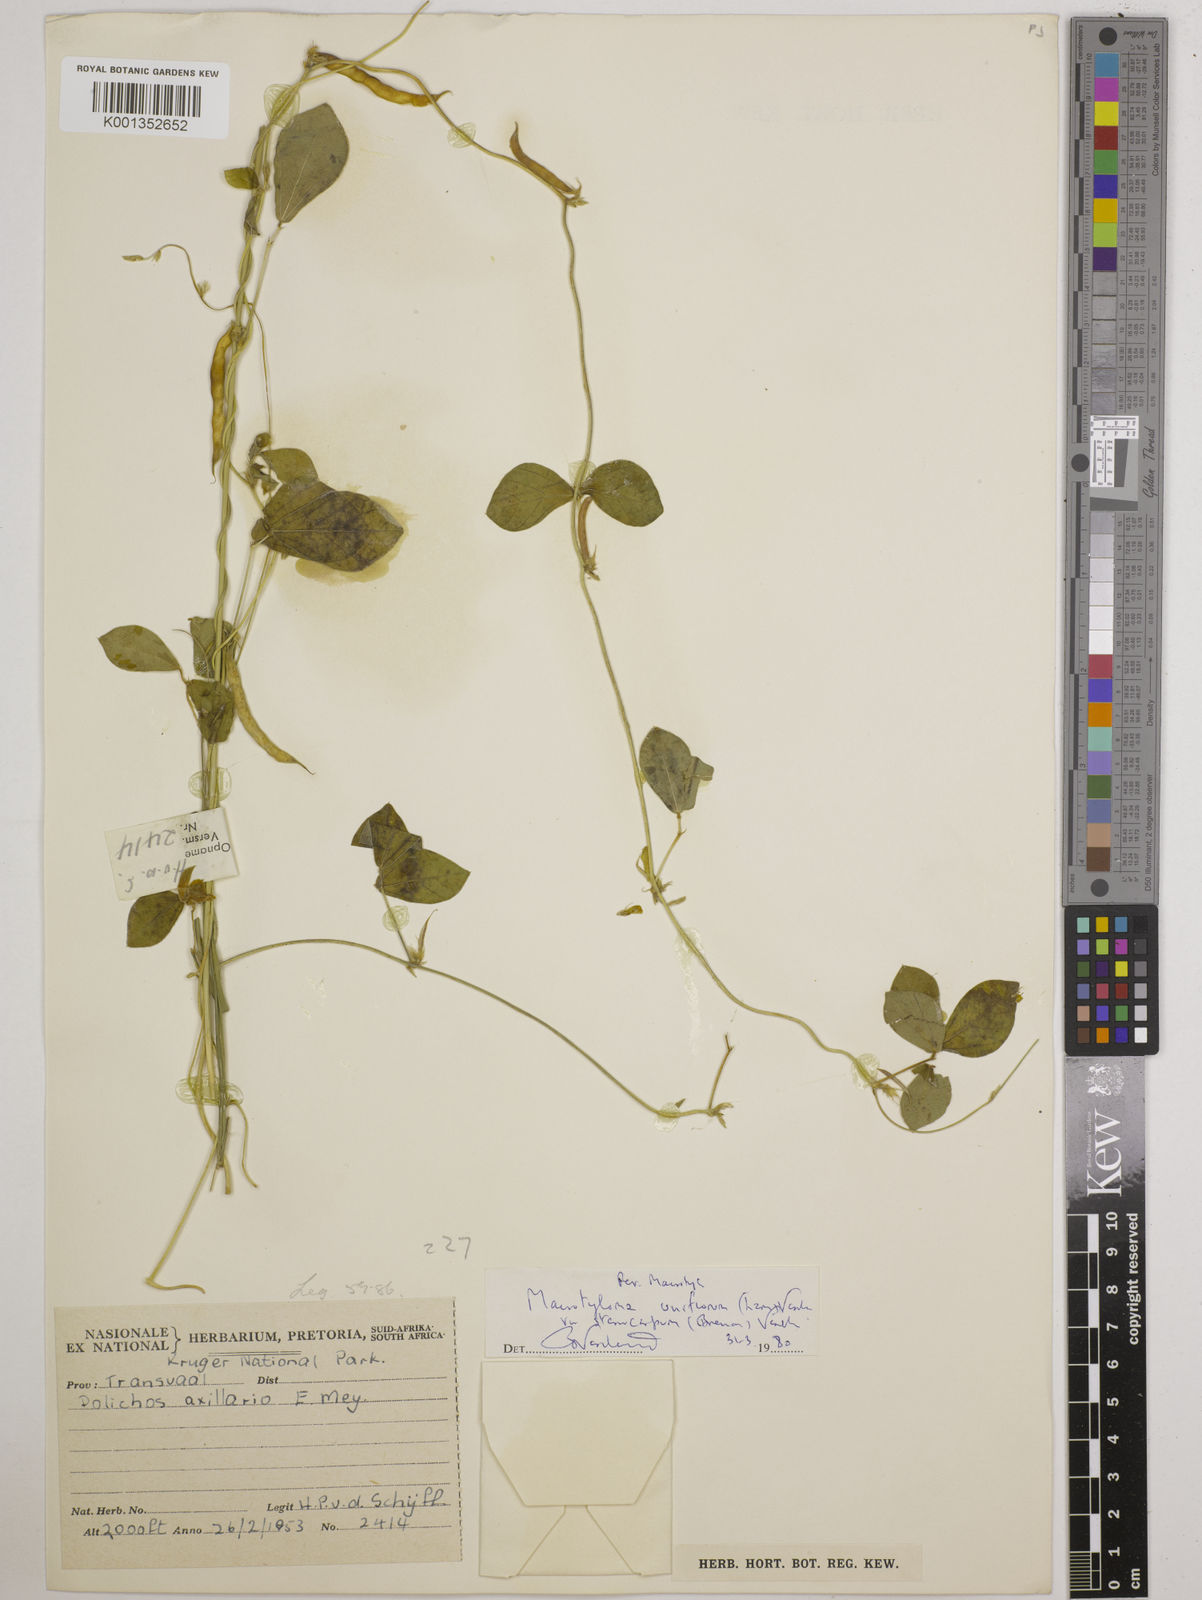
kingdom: Plantae
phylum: Tracheophyta
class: Magnoliopsida
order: Fabales
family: Fabaceae
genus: Macrotyloma
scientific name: Macrotyloma
